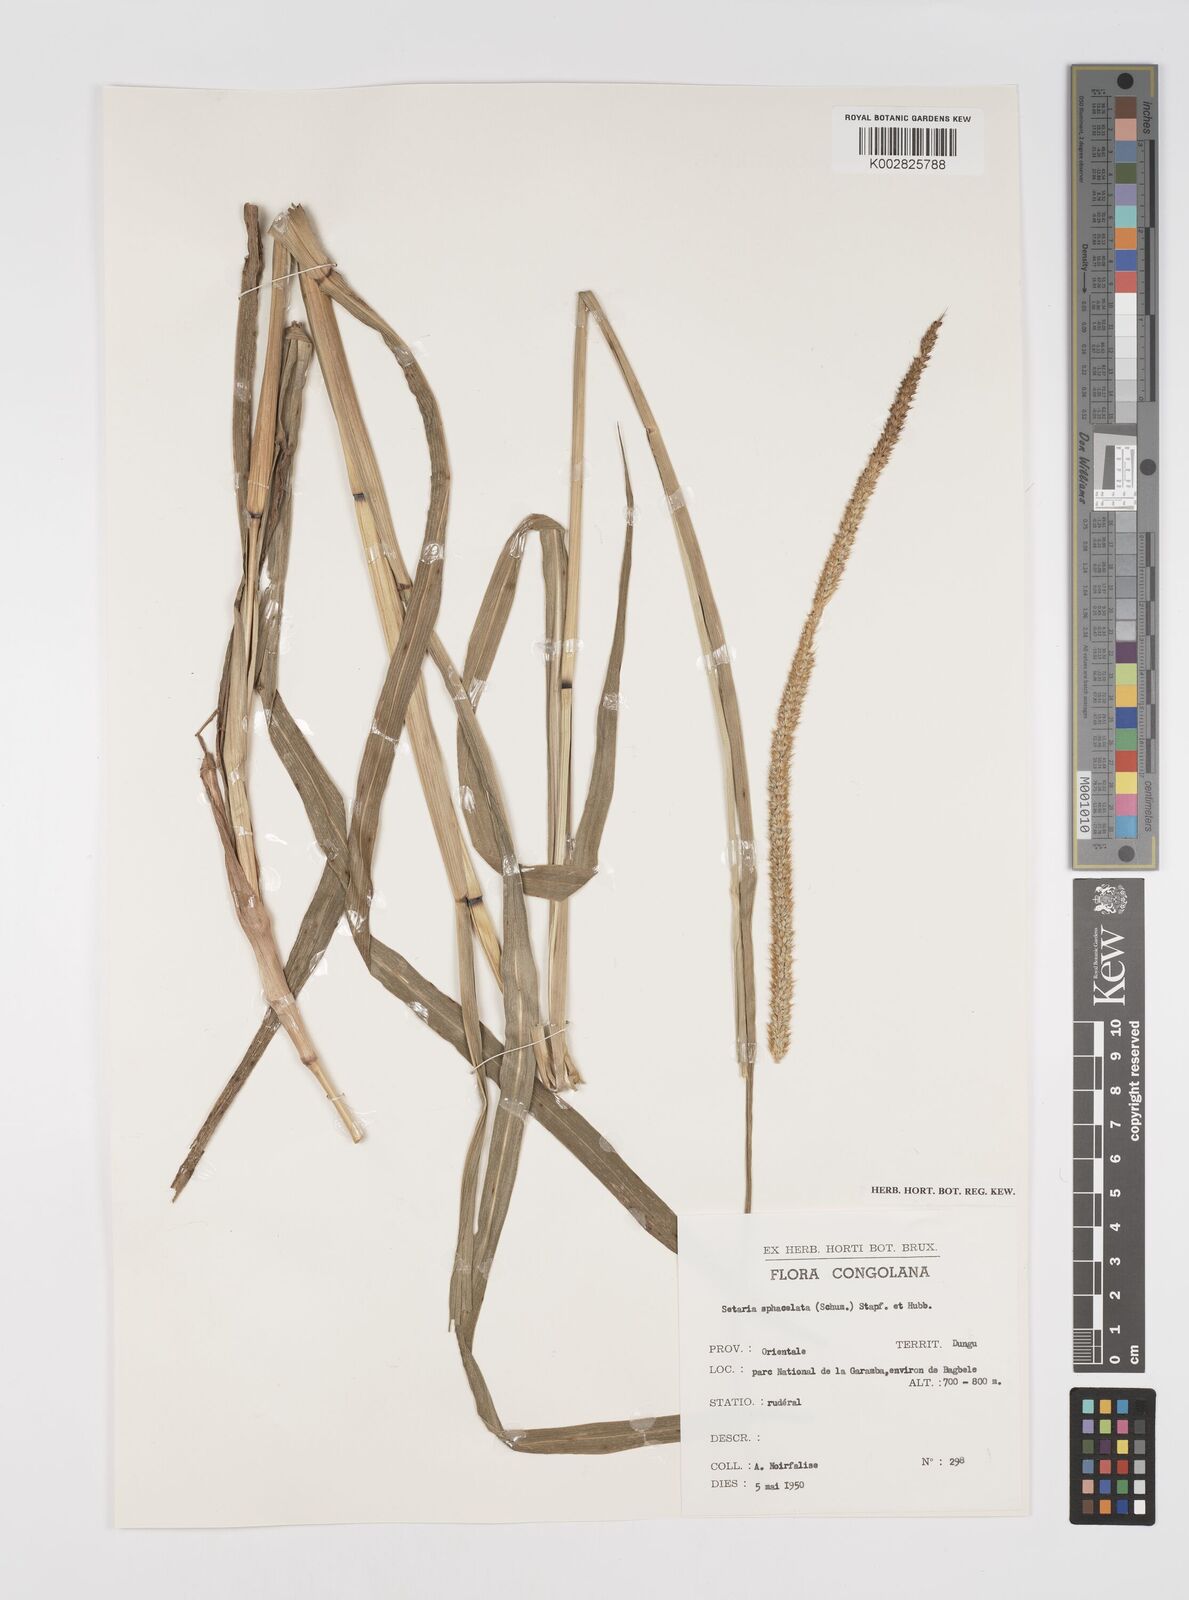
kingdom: Plantae
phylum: Tracheophyta
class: Liliopsida
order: Poales
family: Poaceae
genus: Setaria
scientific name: Setaria sphacelata
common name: African bristlegrass
